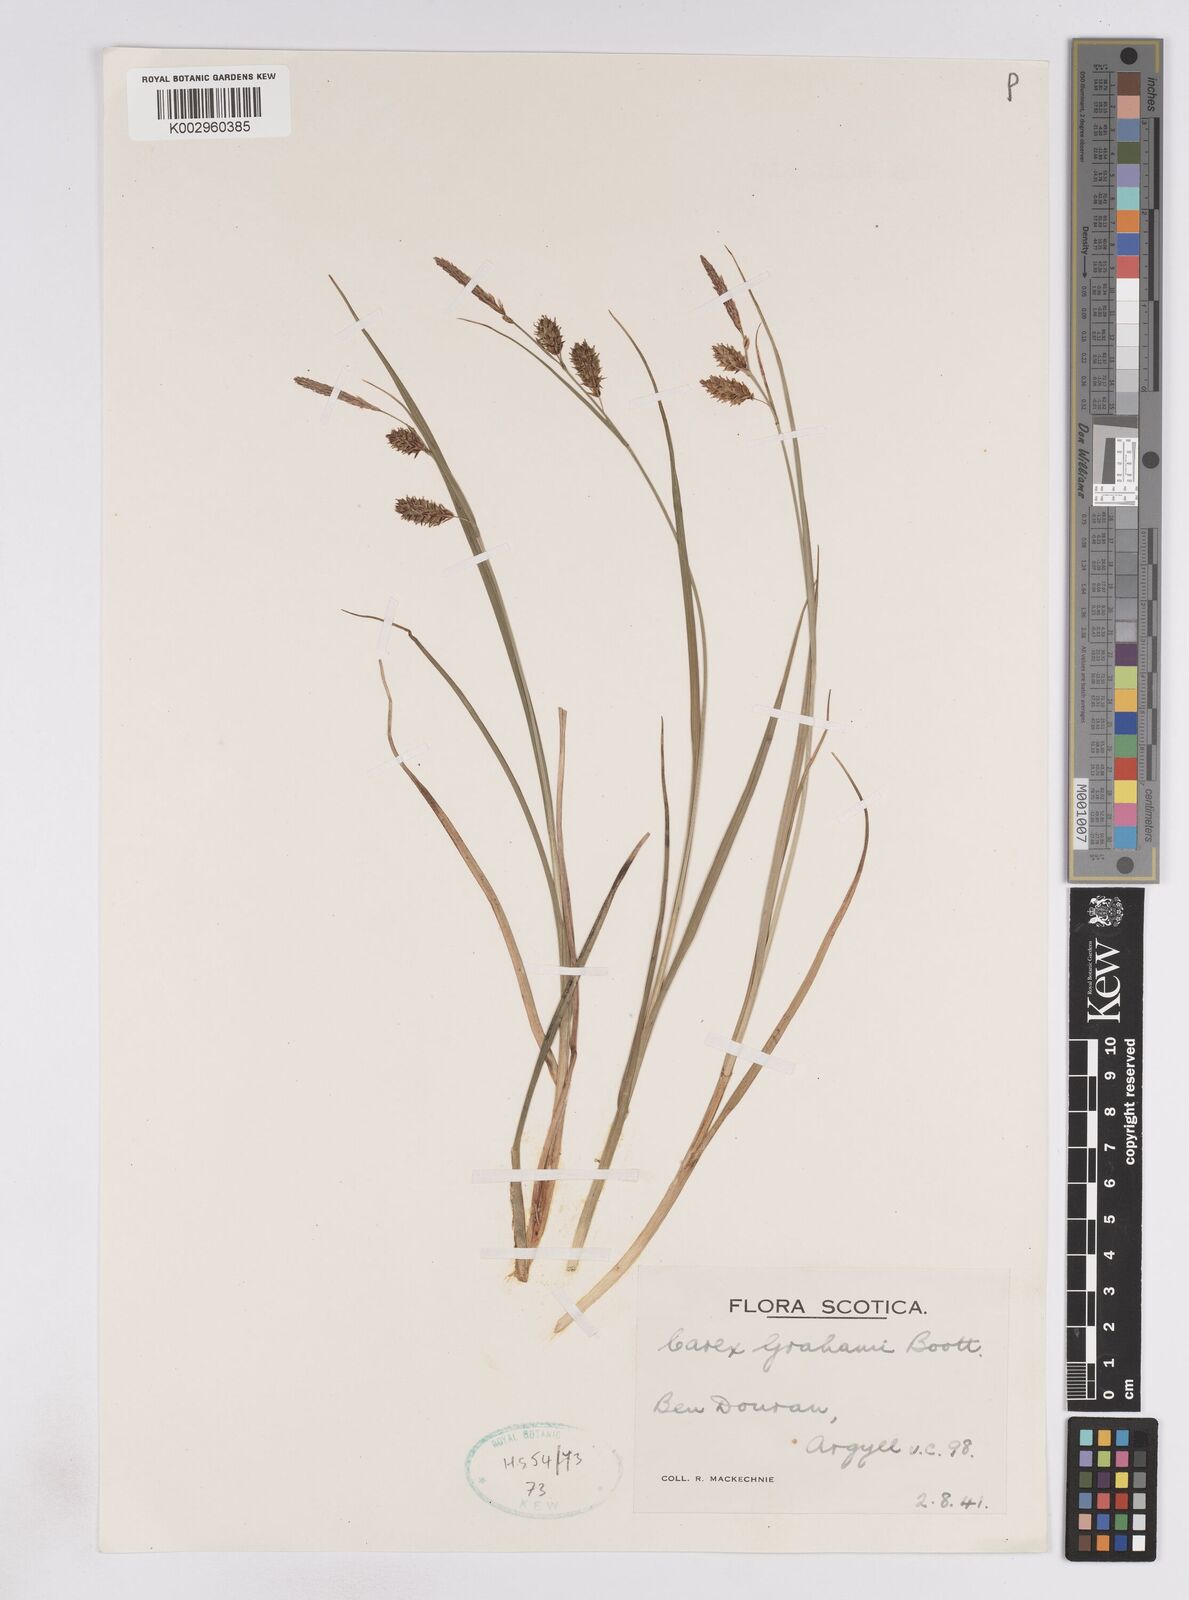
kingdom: Plantae
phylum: Tracheophyta
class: Liliopsida
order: Poales
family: Cyperaceae
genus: Carex
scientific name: Carex rostrata
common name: Bottle sedge
